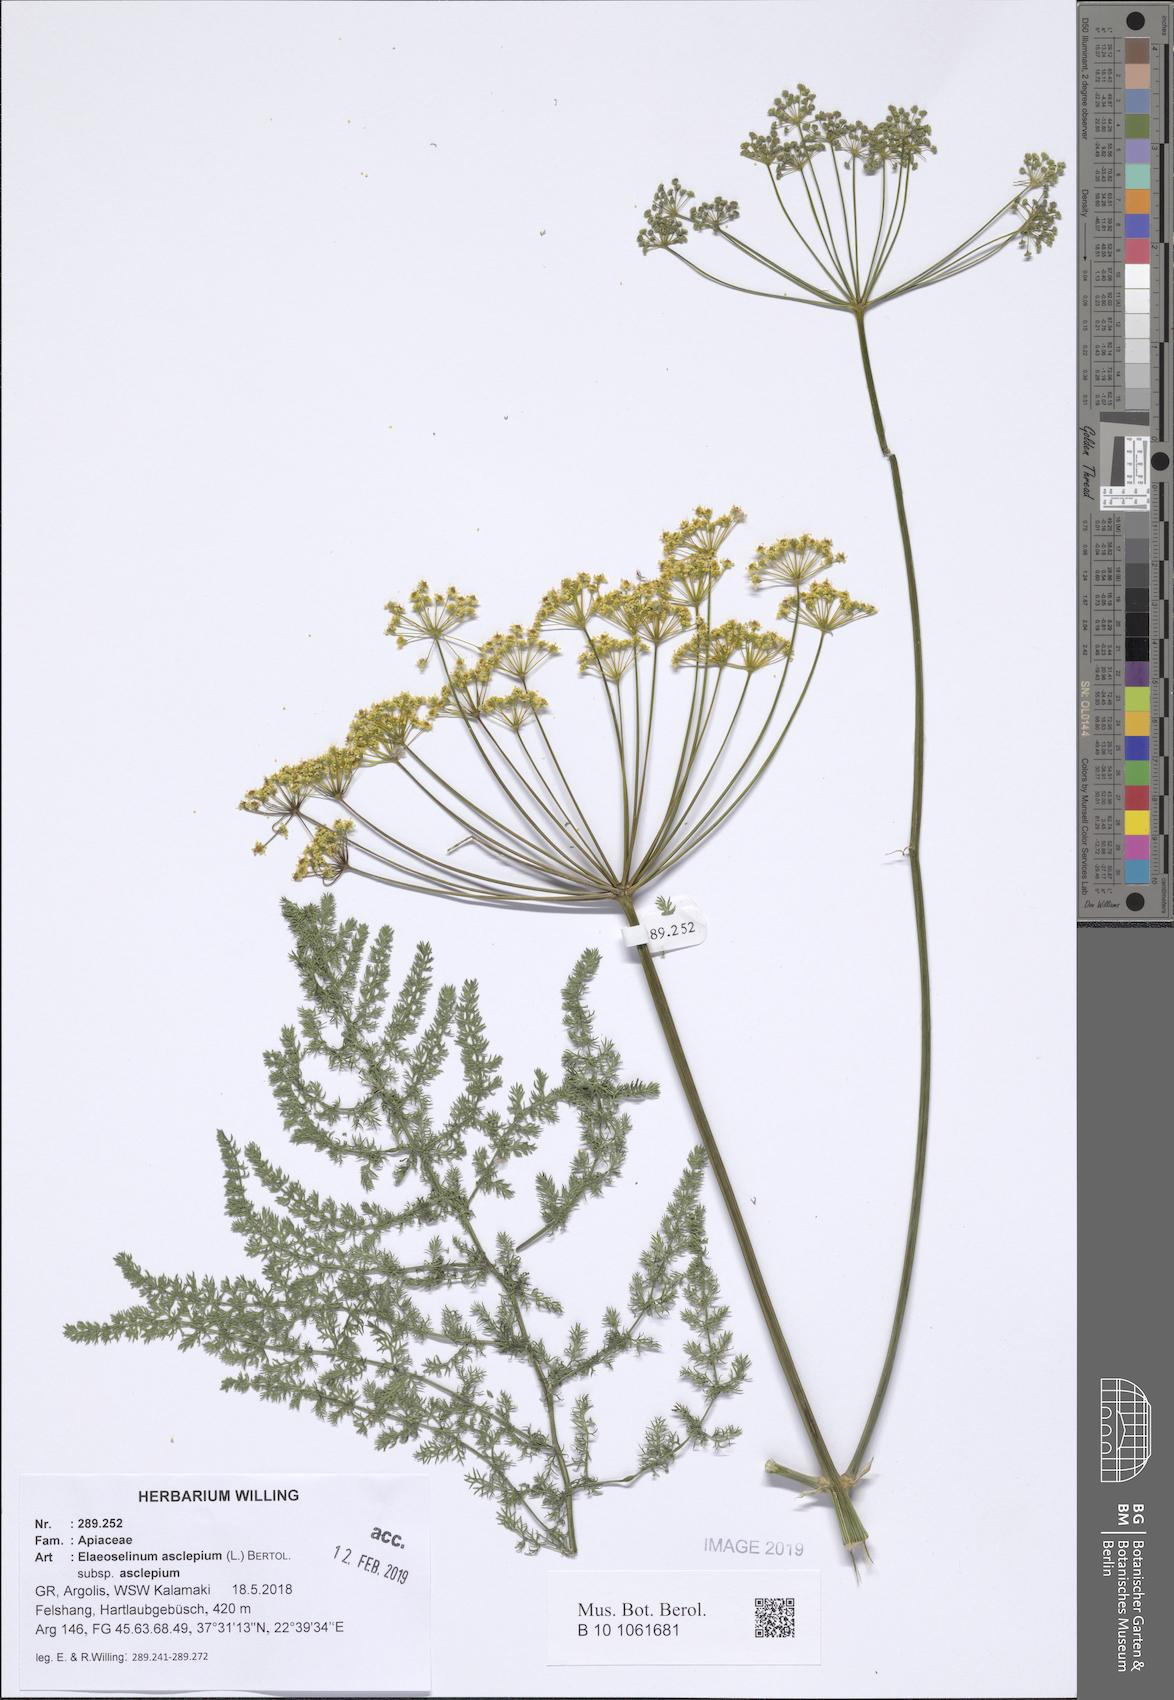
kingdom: Plantae
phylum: Tracheophyta
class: Magnoliopsida
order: Apiales
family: Apiaceae
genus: Thapsia
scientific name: Thapsia asclepium
